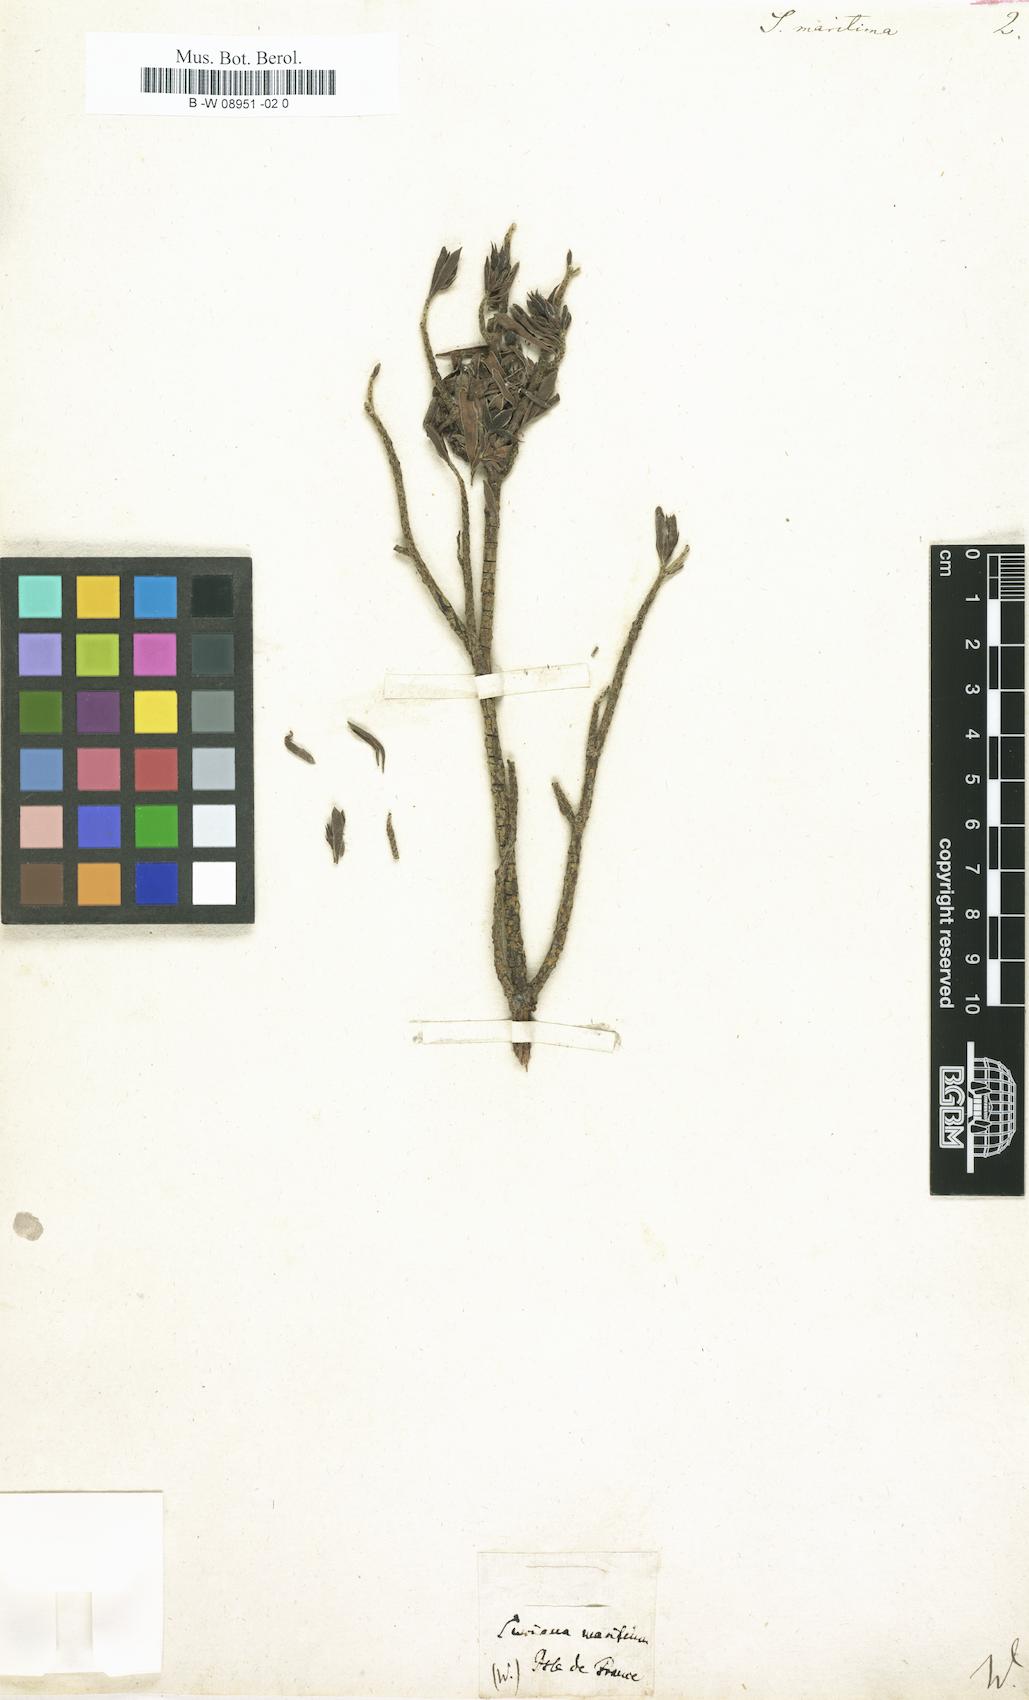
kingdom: Plantae
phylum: Tracheophyta
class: Magnoliopsida
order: Fabales
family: Surianaceae
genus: Suriana
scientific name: Suriana maritima
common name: Bay-cedar
